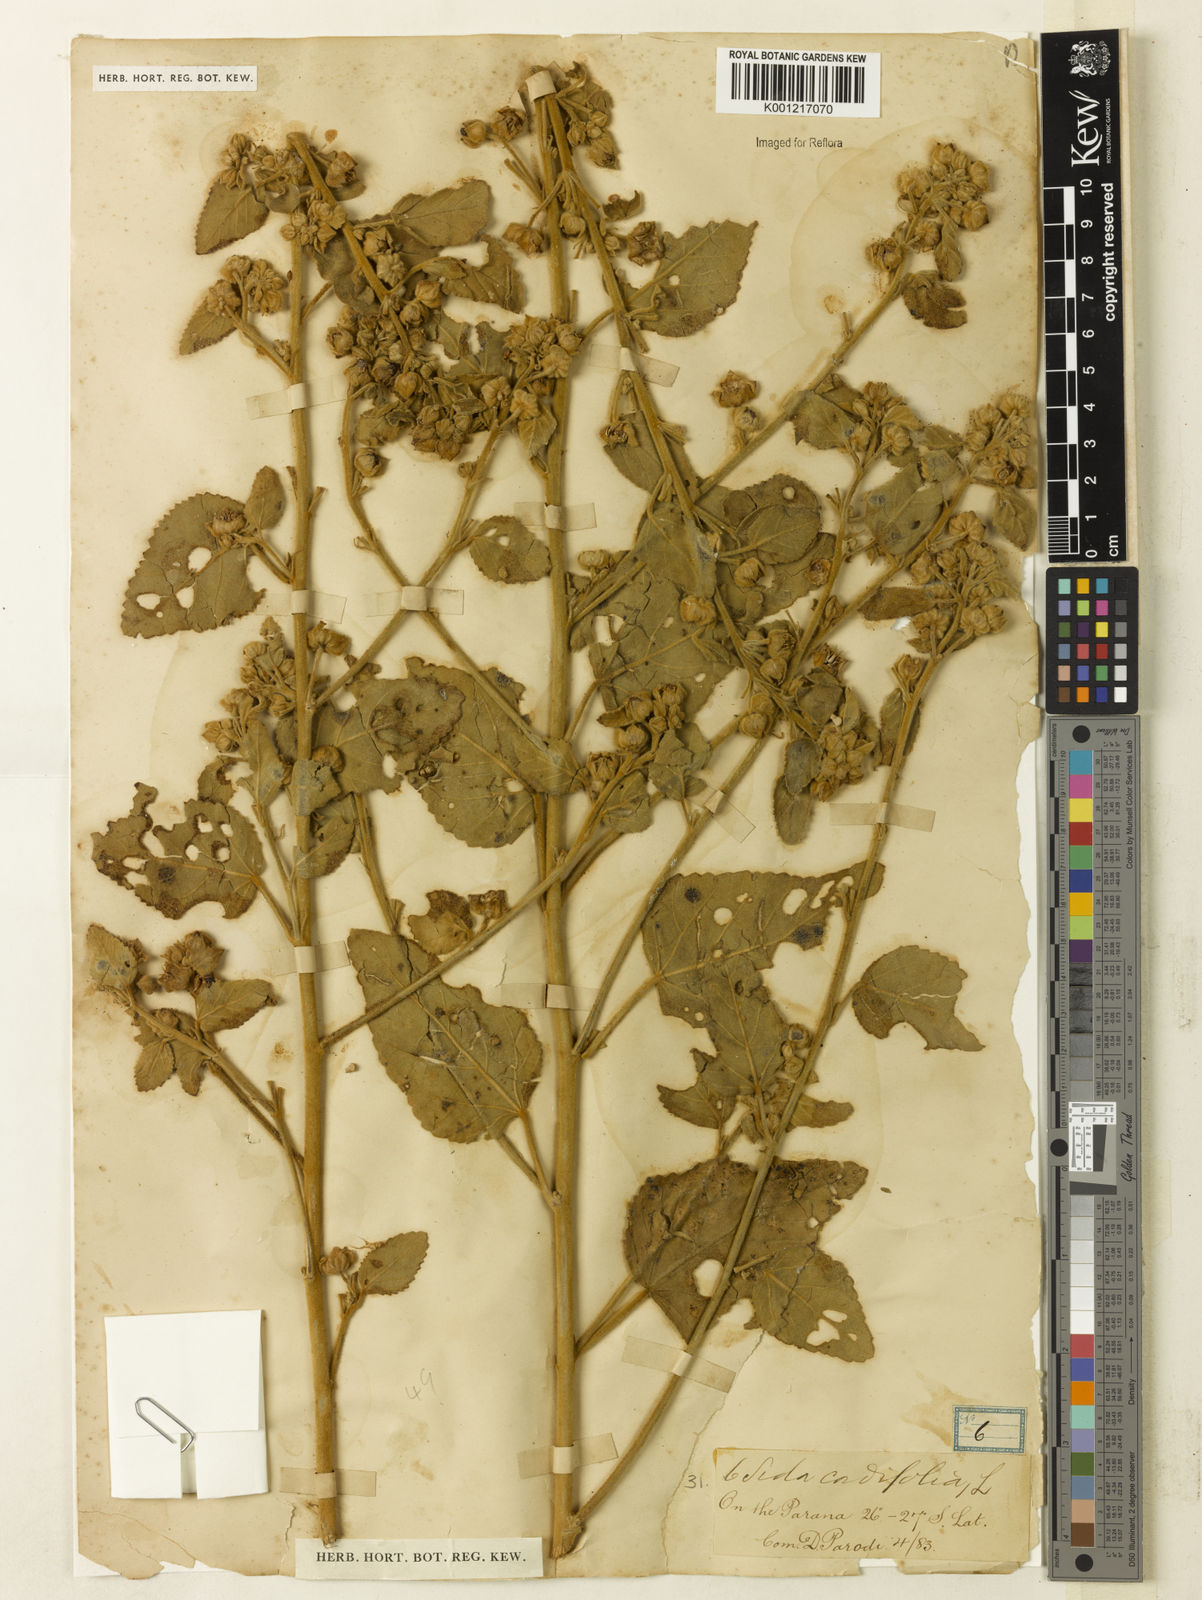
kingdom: Plantae
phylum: Tracheophyta
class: Magnoliopsida
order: Malvales
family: Malvaceae
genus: Sida
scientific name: Sida cordifolia
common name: Ilima
